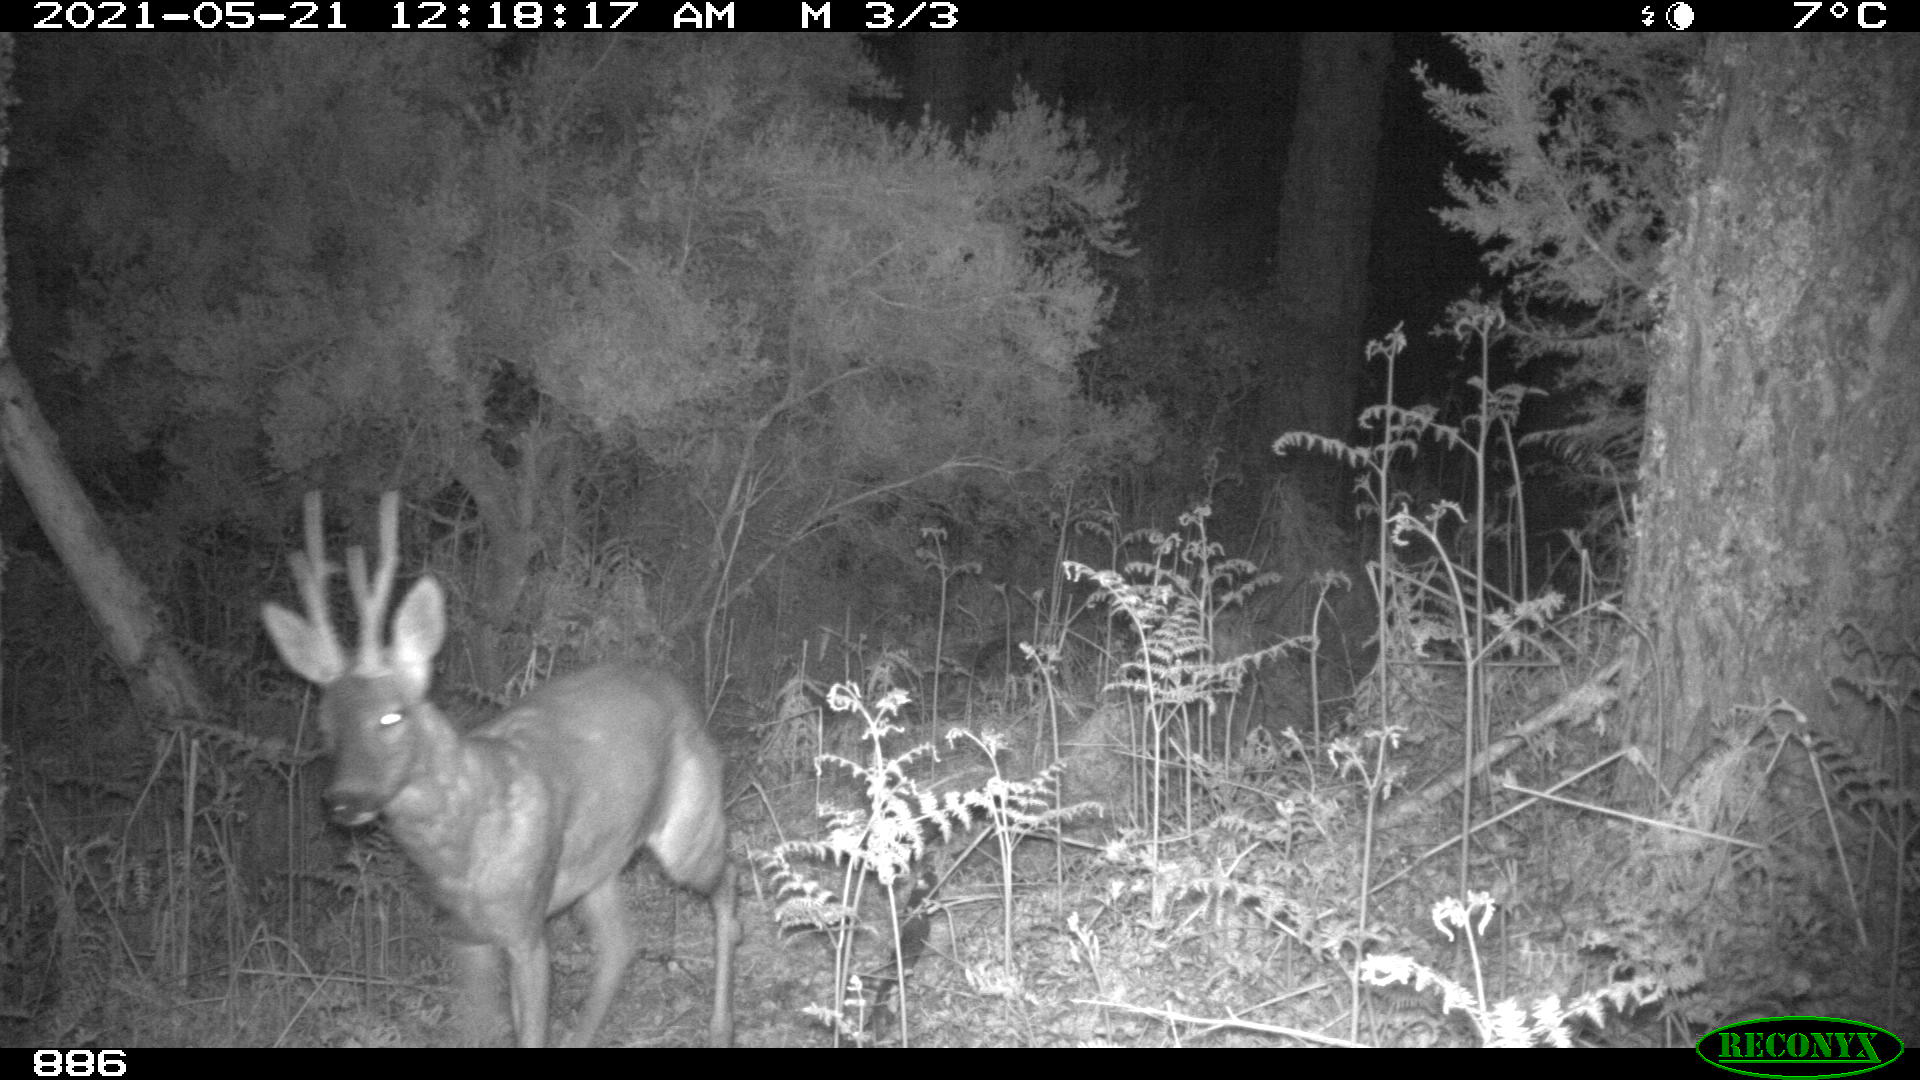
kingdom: Animalia
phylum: Chordata
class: Mammalia
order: Artiodactyla
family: Cervidae
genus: Capreolus
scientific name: Capreolus capreolus
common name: Western roe deer
